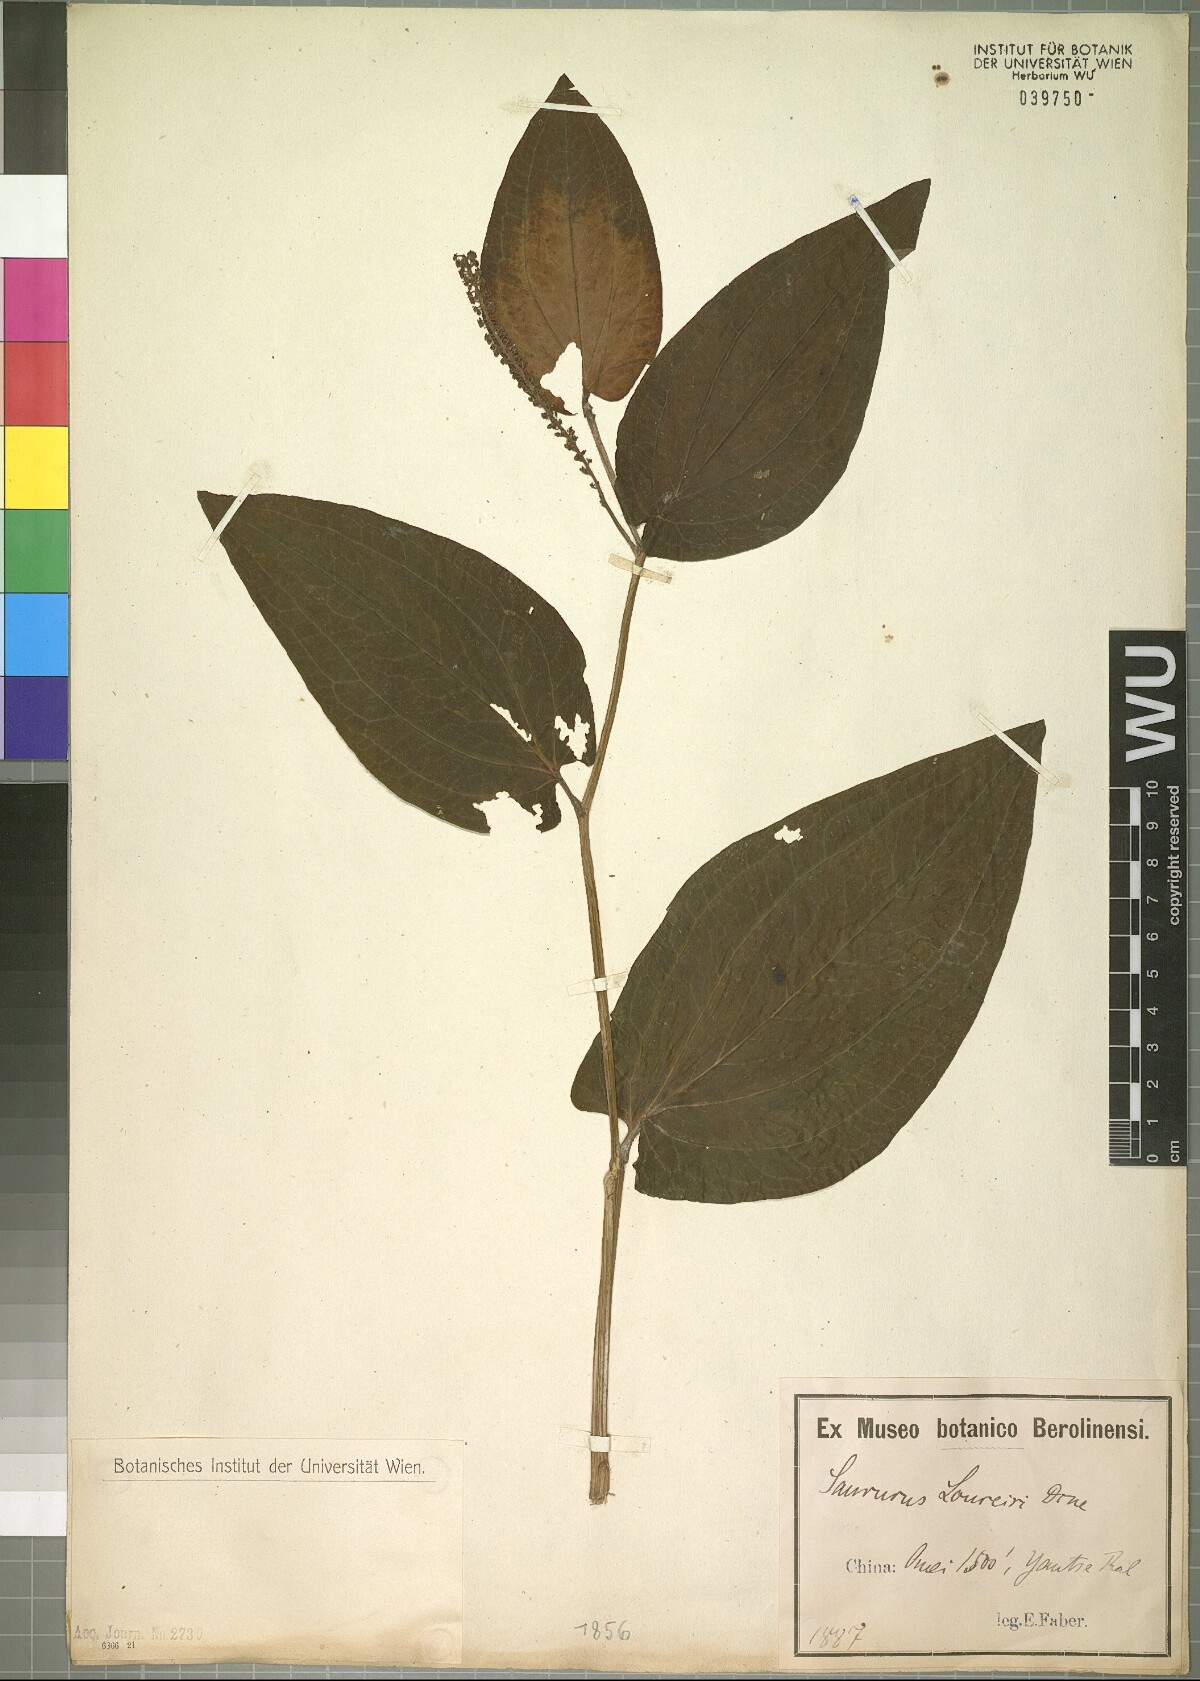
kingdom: Plantae
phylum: Tracheophyta
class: Magnoliopsida
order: Piperales
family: Saururaceae
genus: Saururus
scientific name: Saururus chinensis
